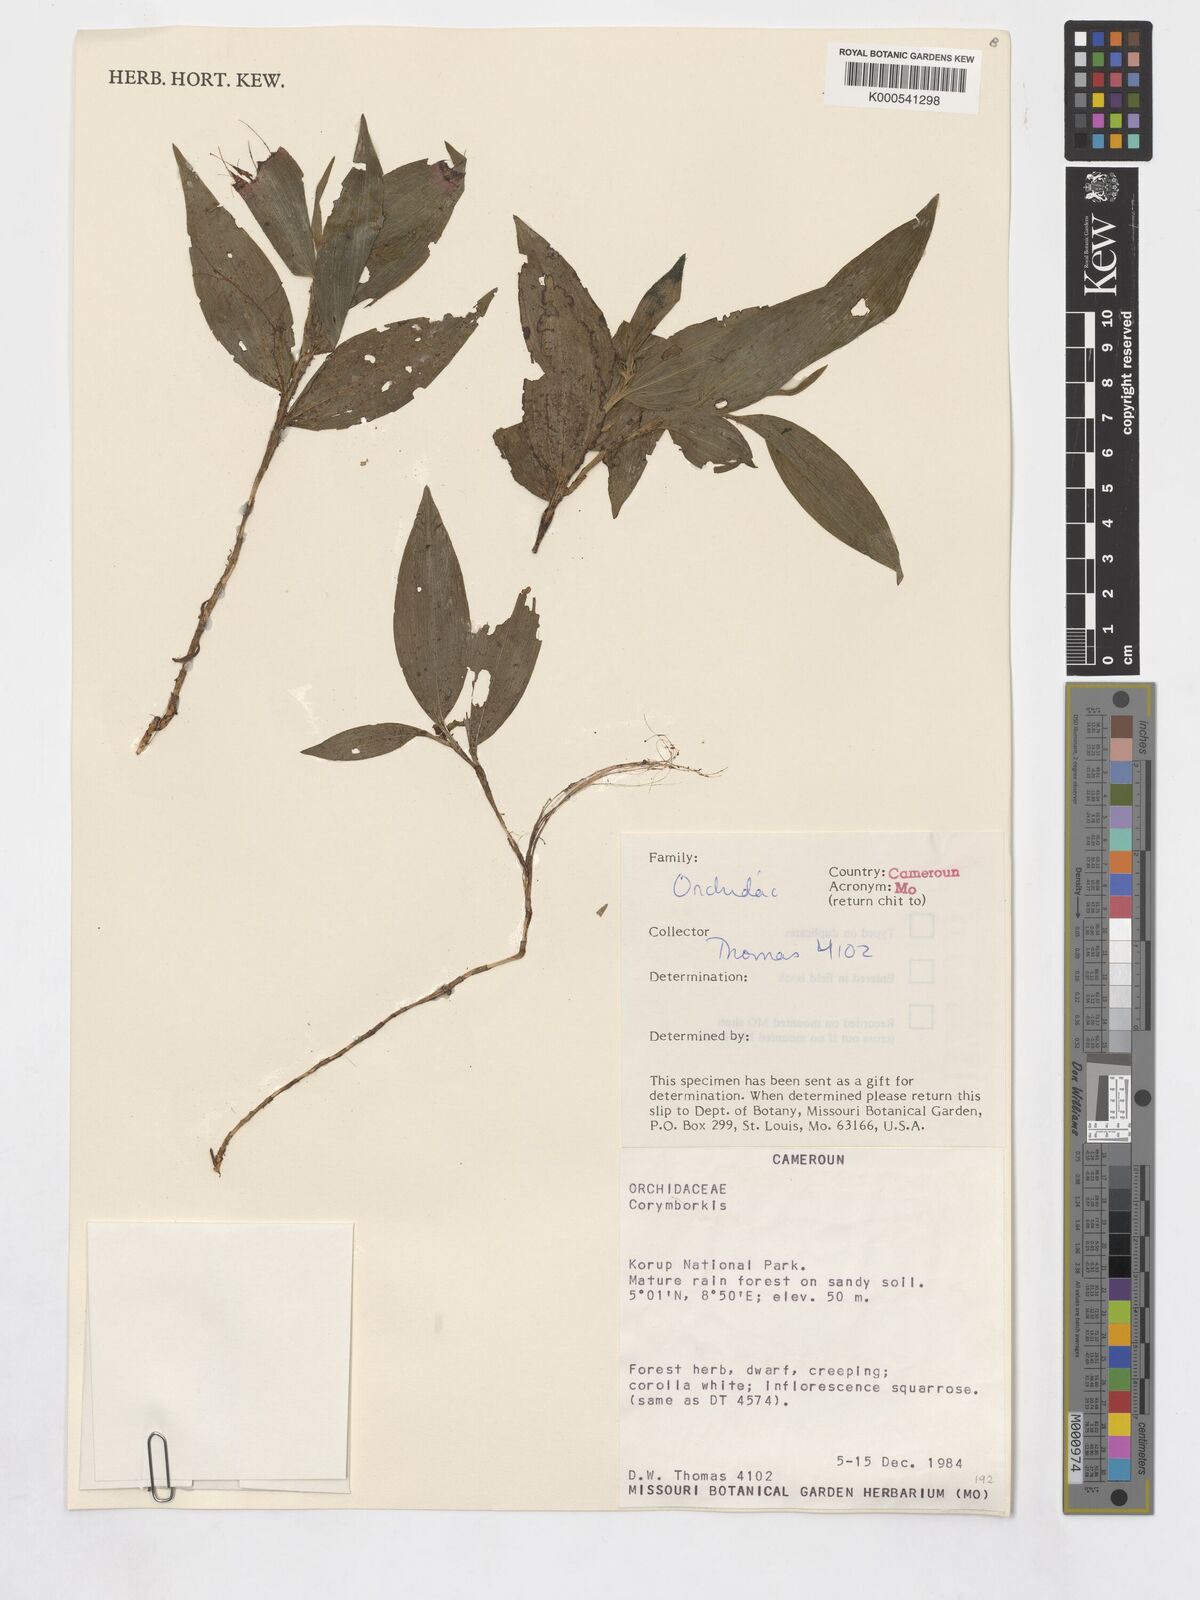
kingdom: Plantae
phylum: Tracheophyta
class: Liliopsida
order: Asparagales
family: Orchidaceae
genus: Corymborkis
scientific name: Corymborkis minima
